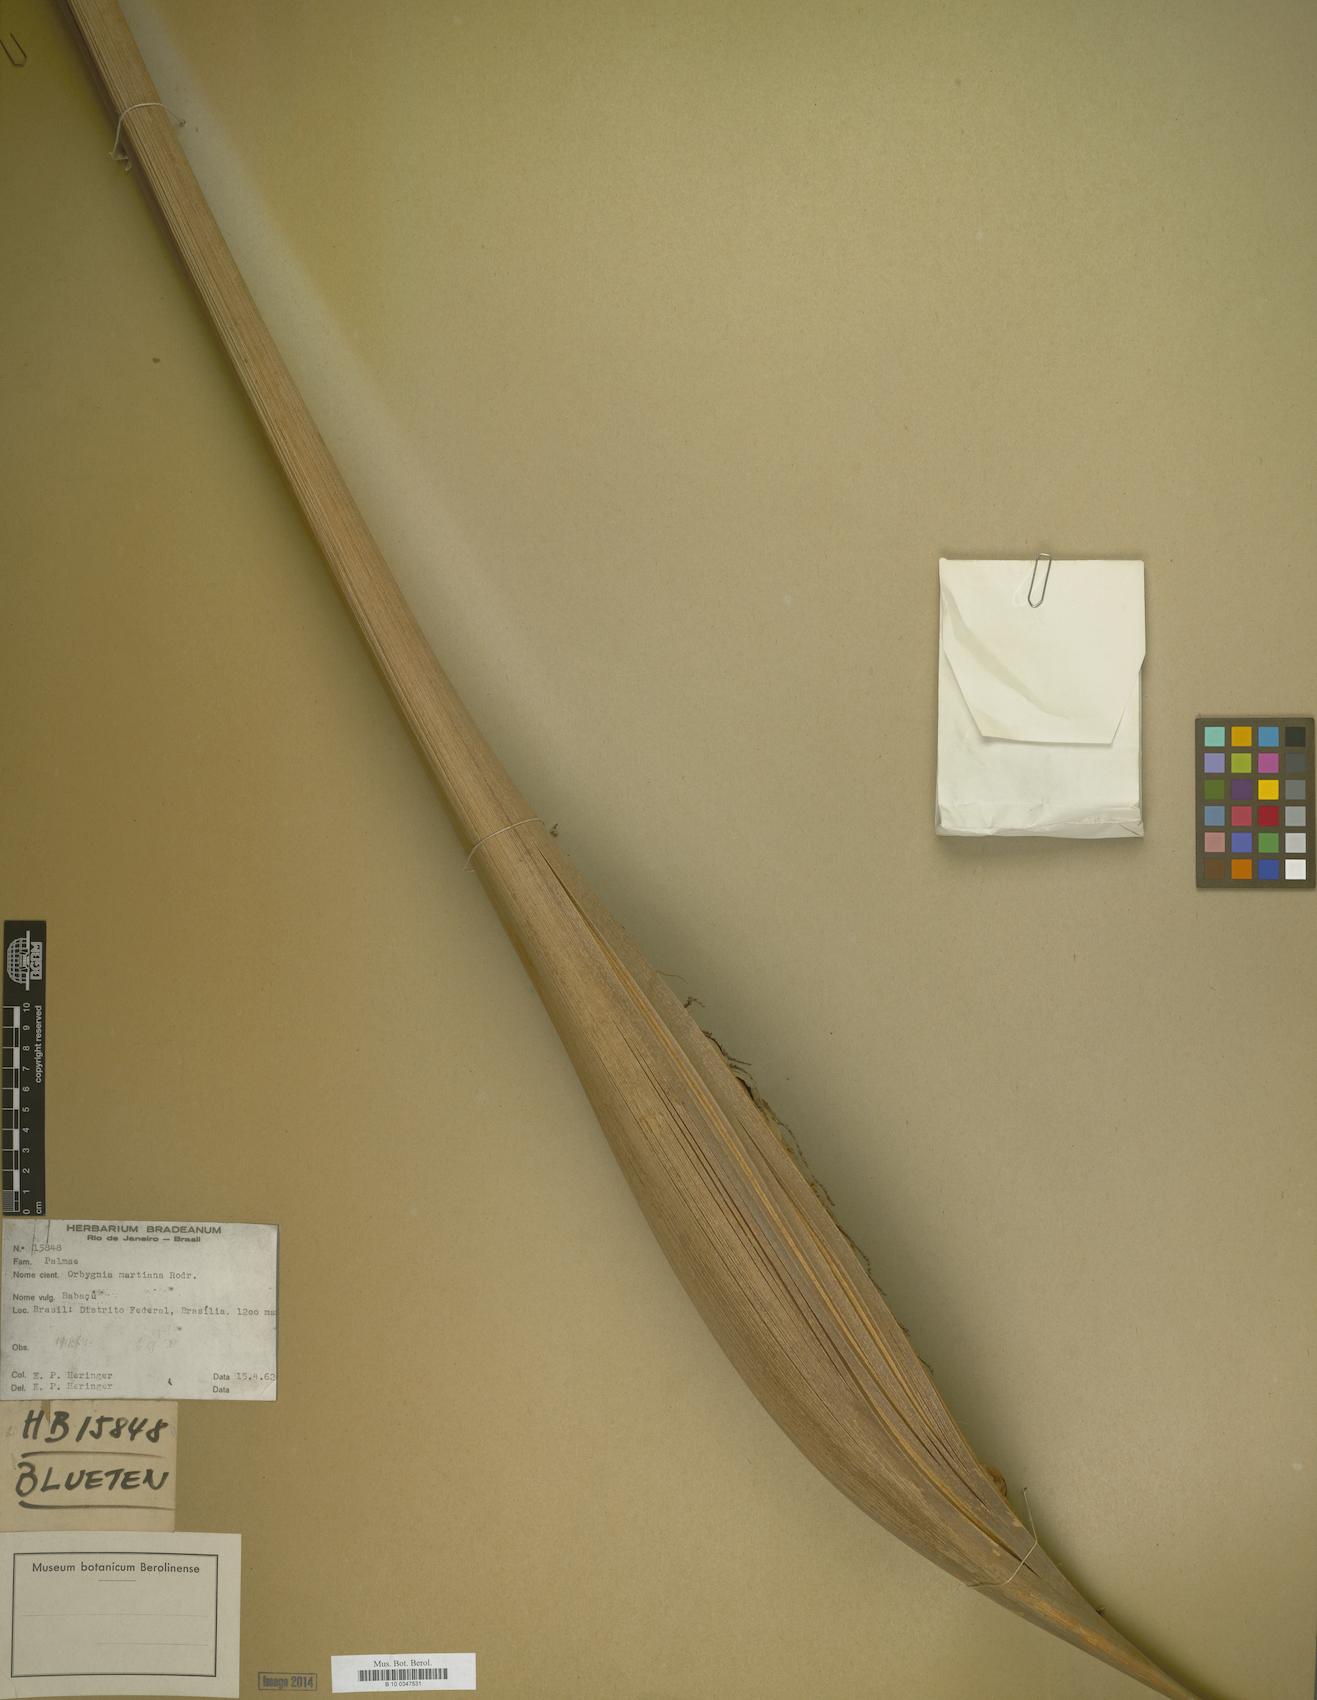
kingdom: Plantae
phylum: Tracheophyta
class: Liliopsida
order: Arecales
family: Arecaceae
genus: Attalea
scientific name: Attalea speciosa
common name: Babassu palm
